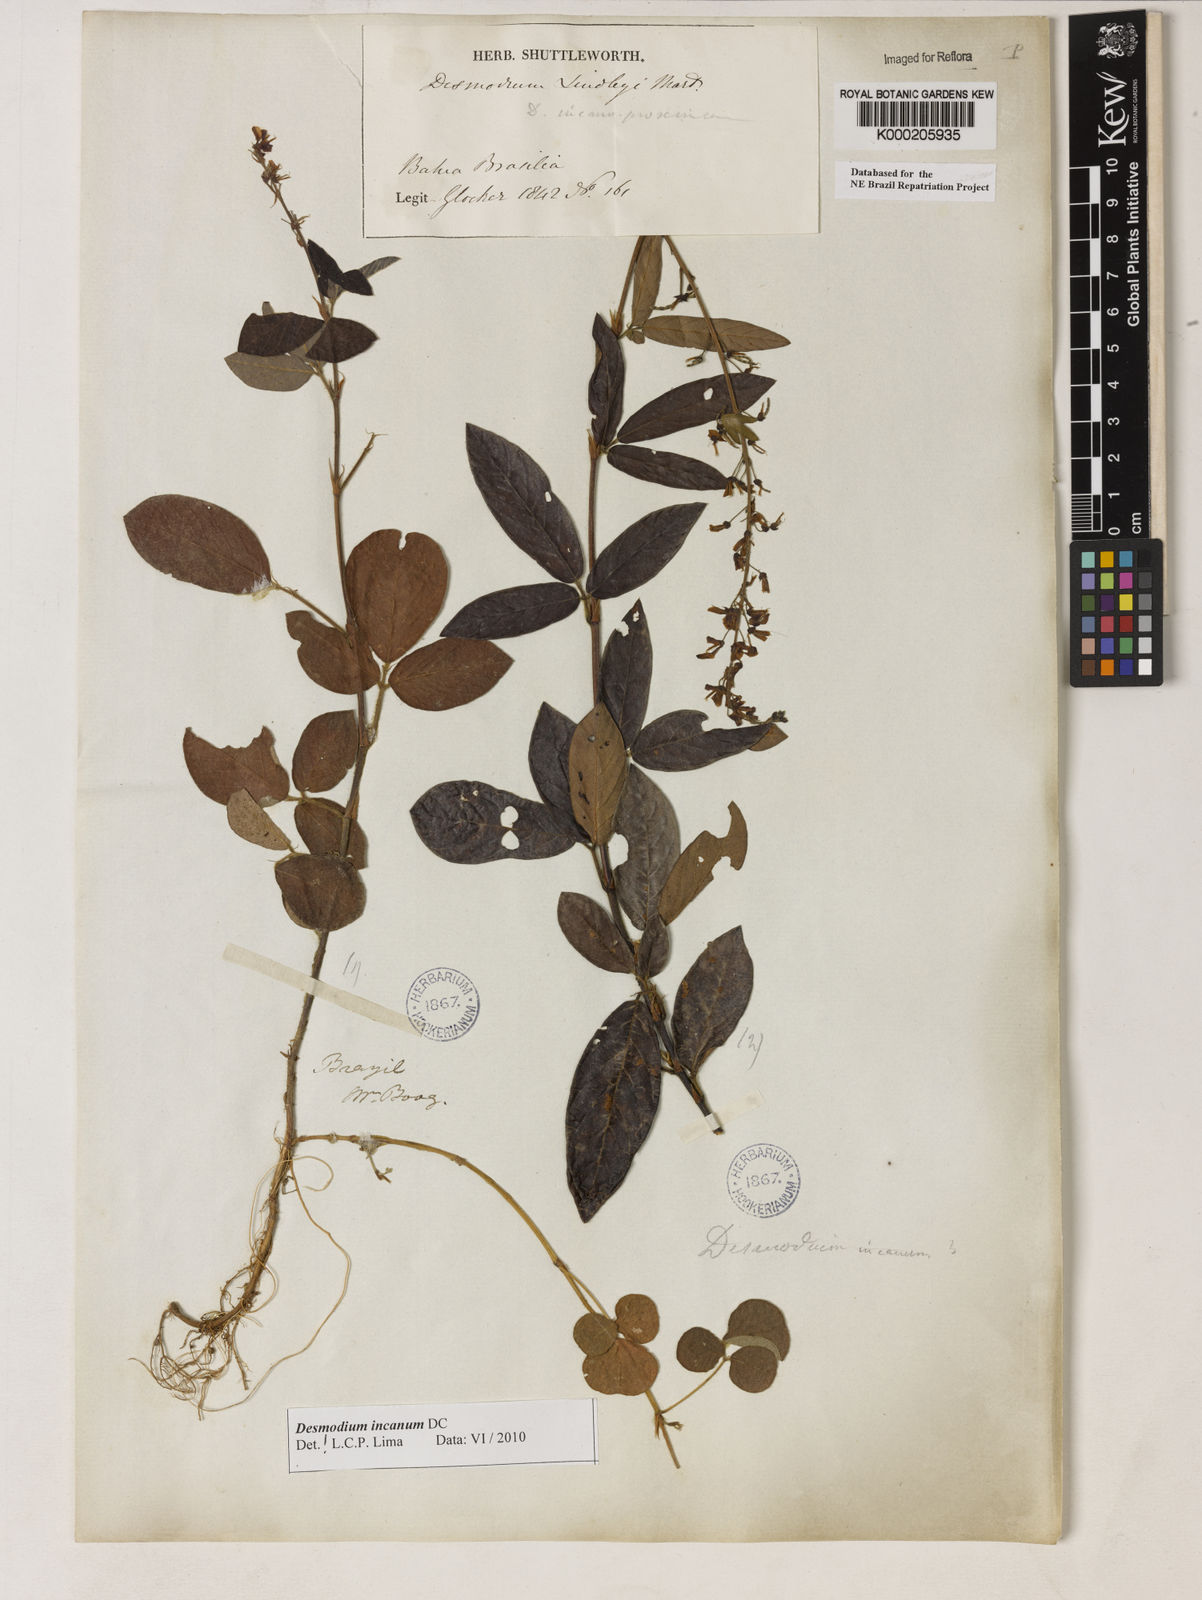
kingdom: Plantae
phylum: Tracheophyta
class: Magnoliopsida
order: Fabales
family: Fabaceae
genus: Desmodium
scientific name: Desmodium incanum
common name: Tickclover
